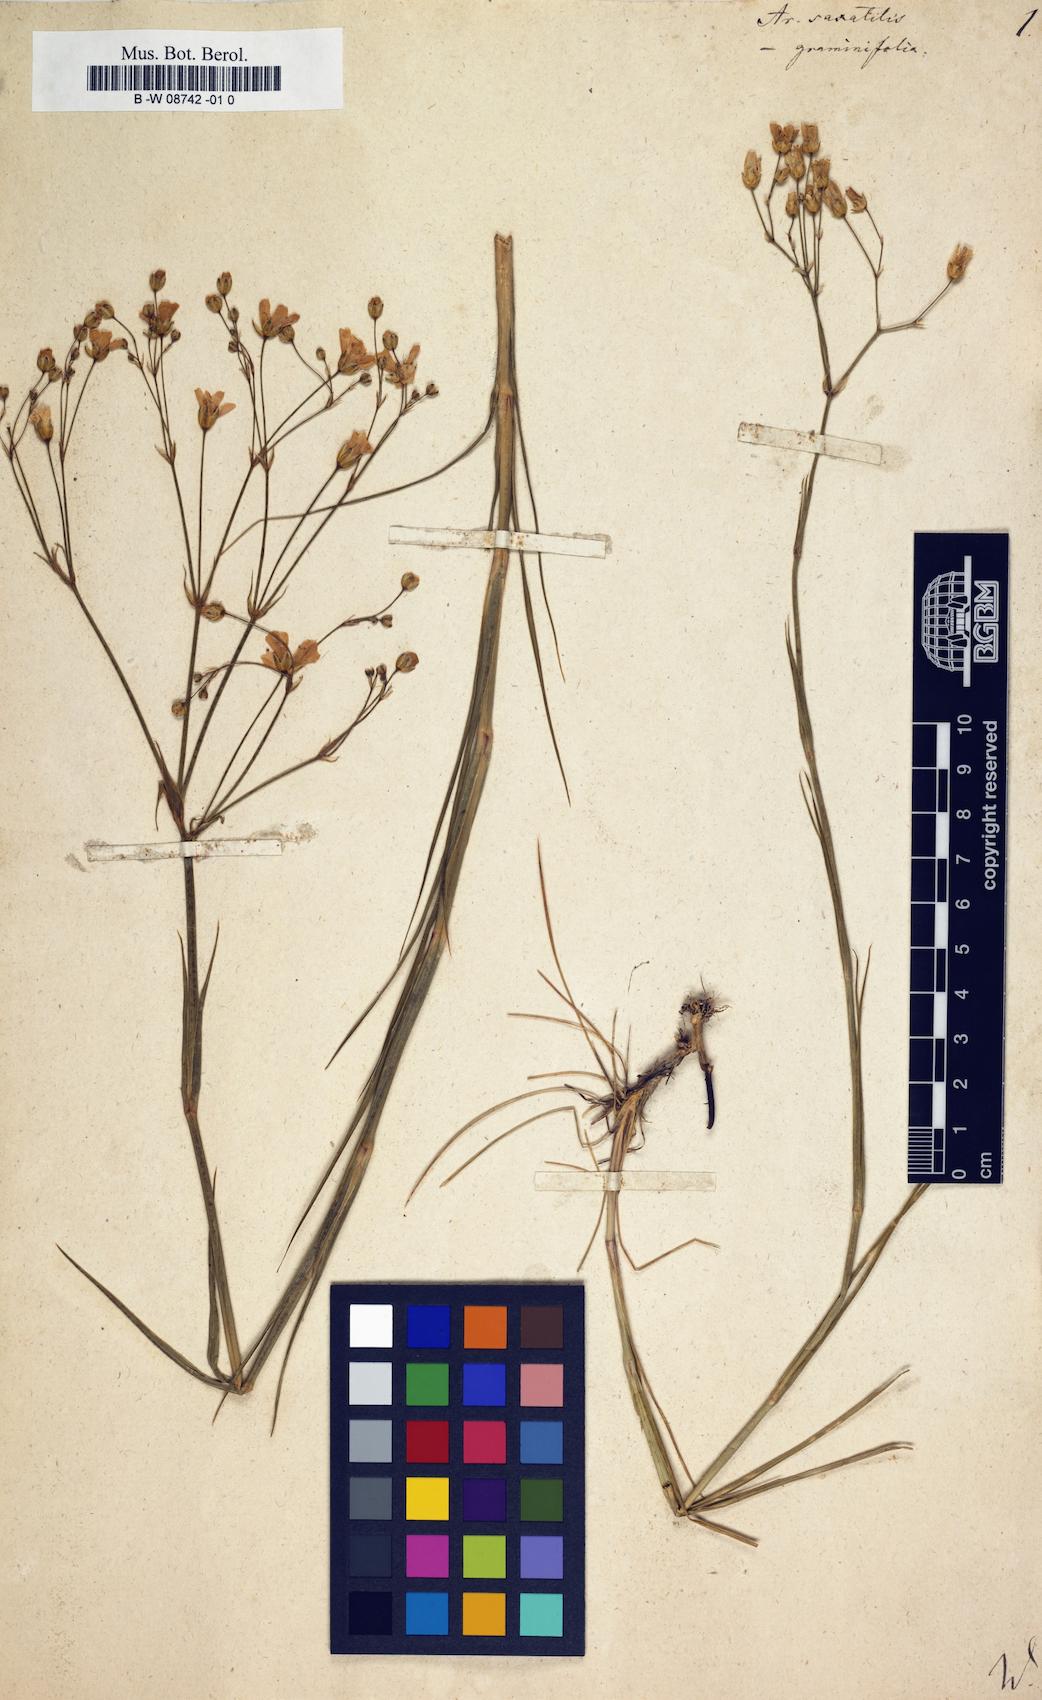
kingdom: Plantae
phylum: Tracheophyta
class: Magnoliopsida
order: Caryophyllales
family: Caryophyllaceae
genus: Eremogone
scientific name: Eremogone saxatilis
